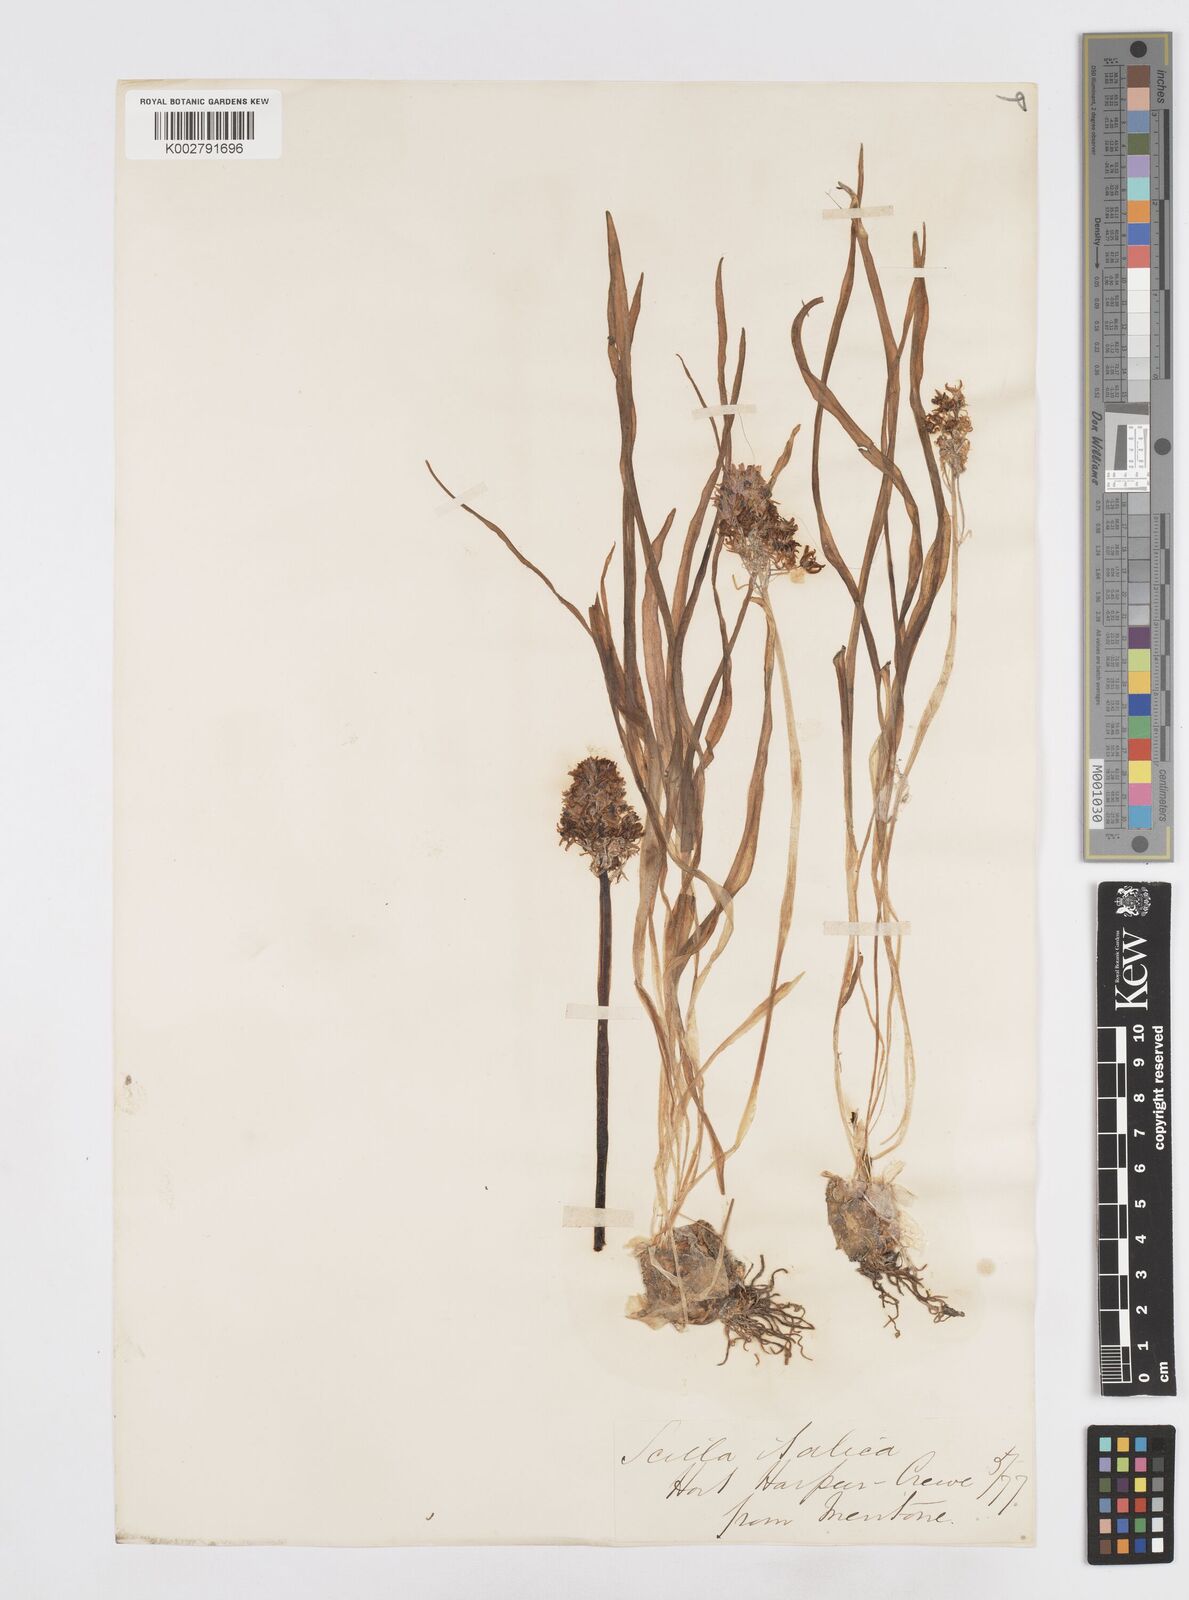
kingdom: Plantae
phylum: Tracheophyta
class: Liliopsida
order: Asparagales
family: Asparagaceae
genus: Hyacinthoides
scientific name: Hyacinthoides italica
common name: Italian bluebell
